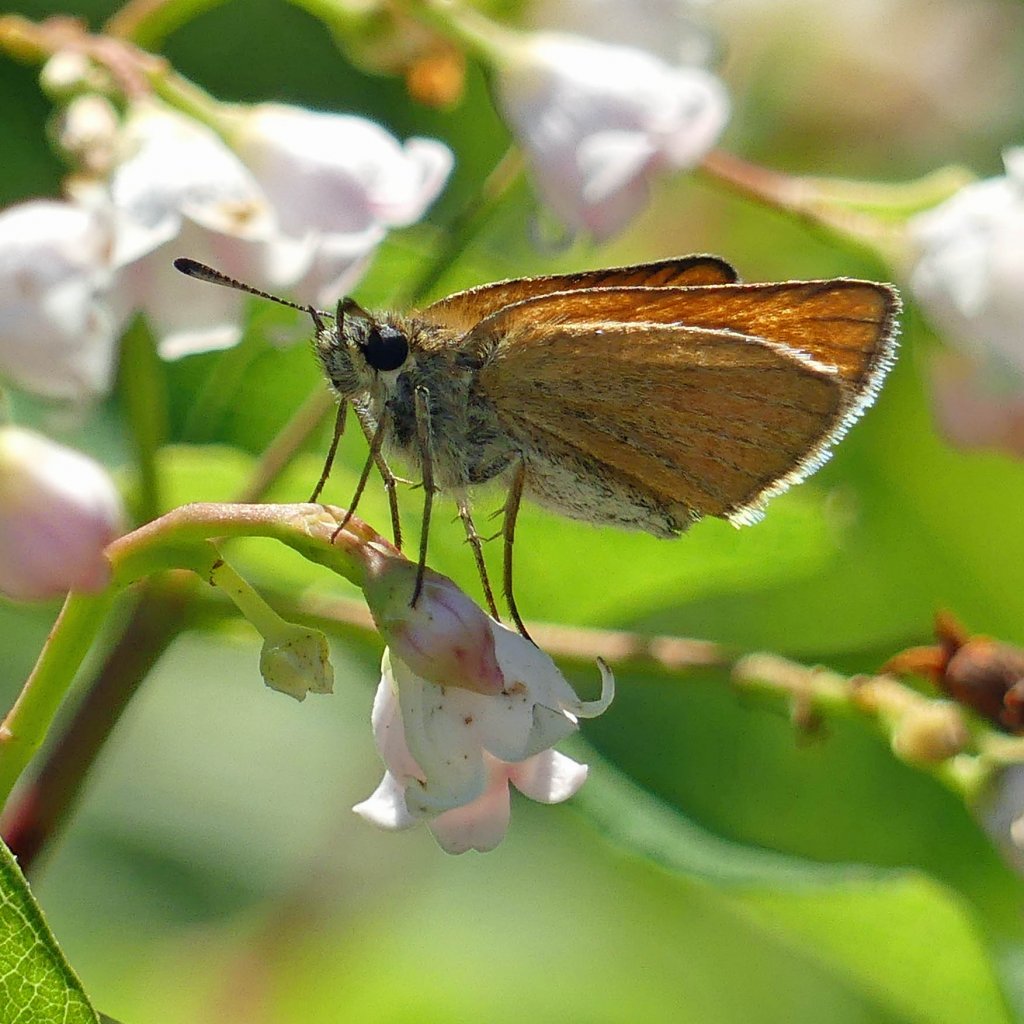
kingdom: Animalia
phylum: Arthropoda
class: Insecta
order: Lepidoptera
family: Hesperiidae
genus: Thymelicus
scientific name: Thymelicus lineola
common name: European Skipper
